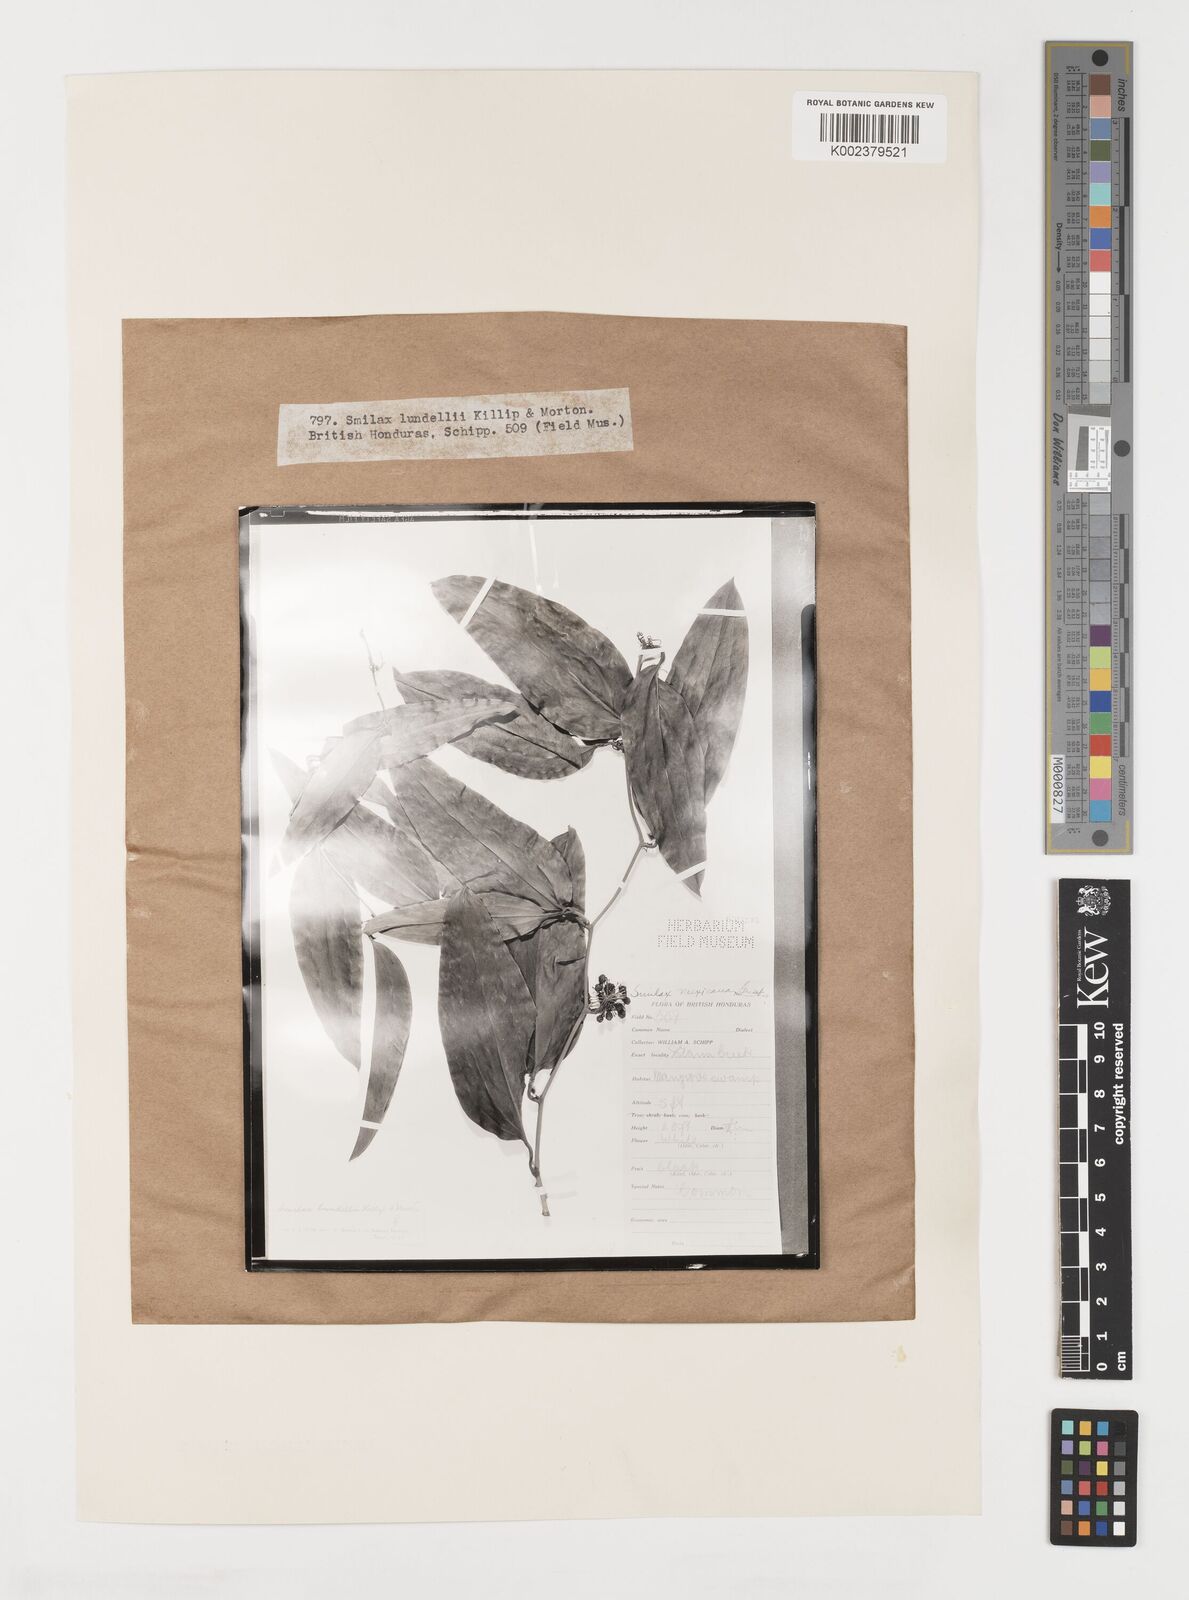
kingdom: Plantae
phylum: Tracheophyta
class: Liliopsida
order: Liliales
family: Smilacaceae
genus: Smilax
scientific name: Smilax spinosa
